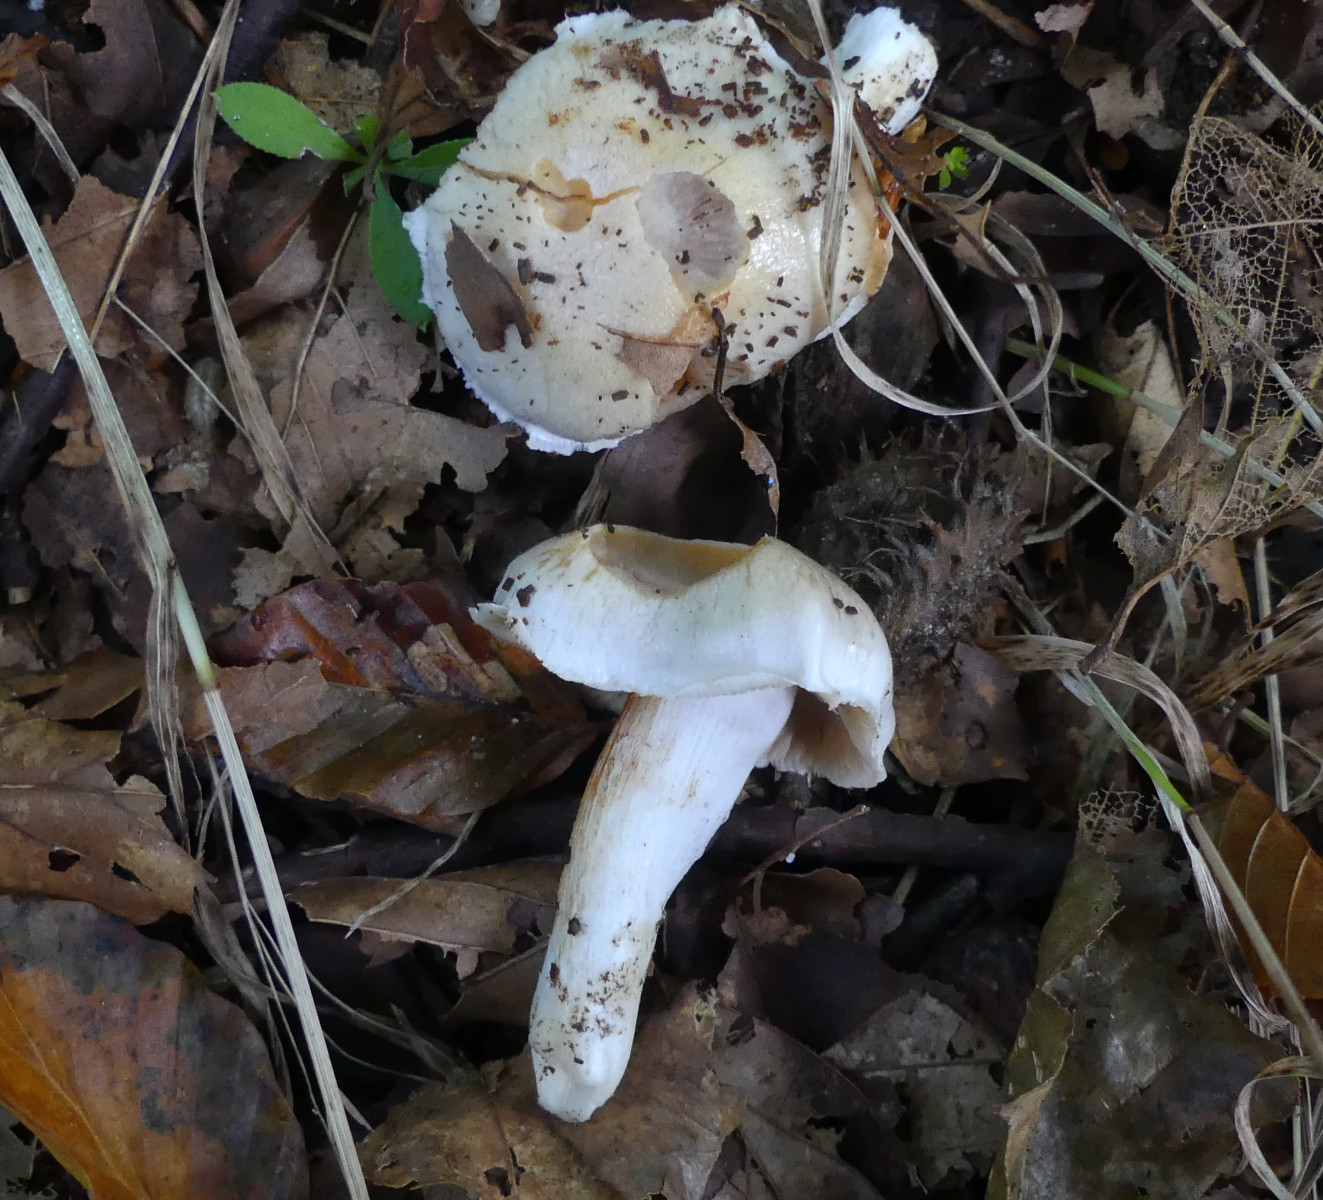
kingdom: Fungi
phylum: Basidiomycota
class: Agaricomycetes
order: Agaricales
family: Cortinariaceae
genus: Thaxterogaster
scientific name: Thaxterogaster barbatus
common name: elfenbens-slørhat
